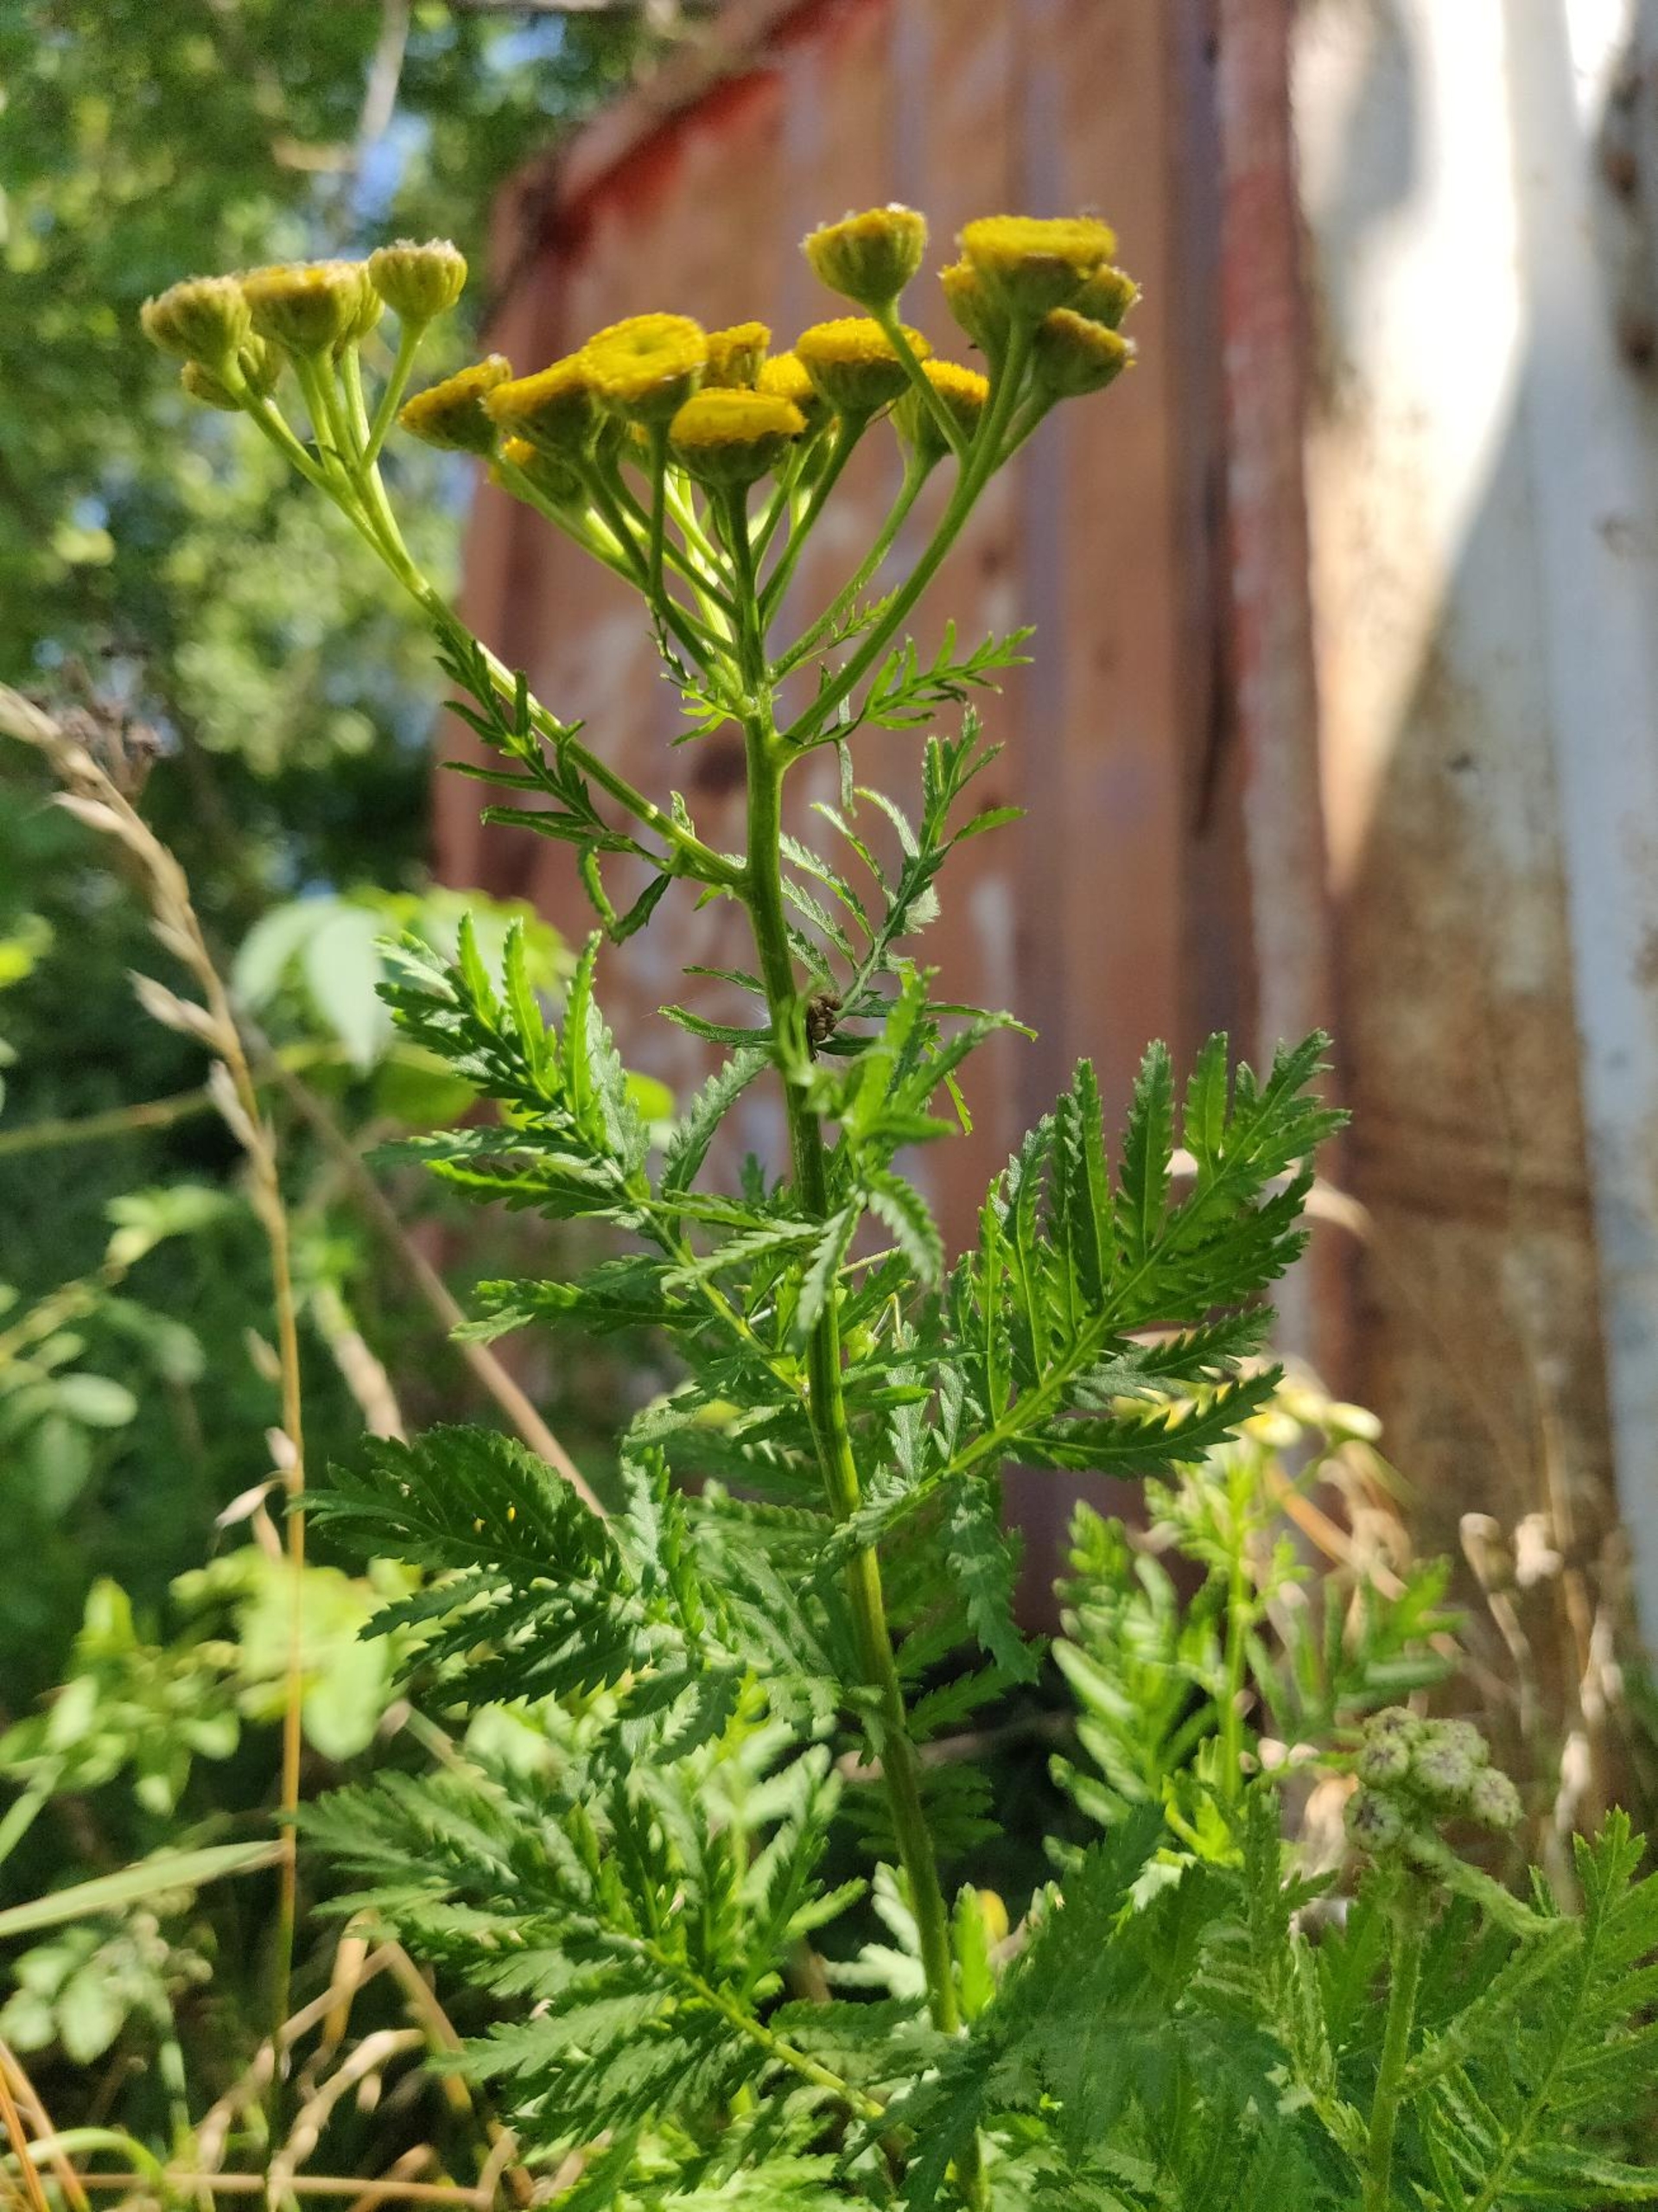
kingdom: Plantae
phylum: Tracheophyta
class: Magnoliopsida
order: Asterales
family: Asteraceae
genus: Tanacetum
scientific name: Tanacetum vulgare
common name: Rejnfan
